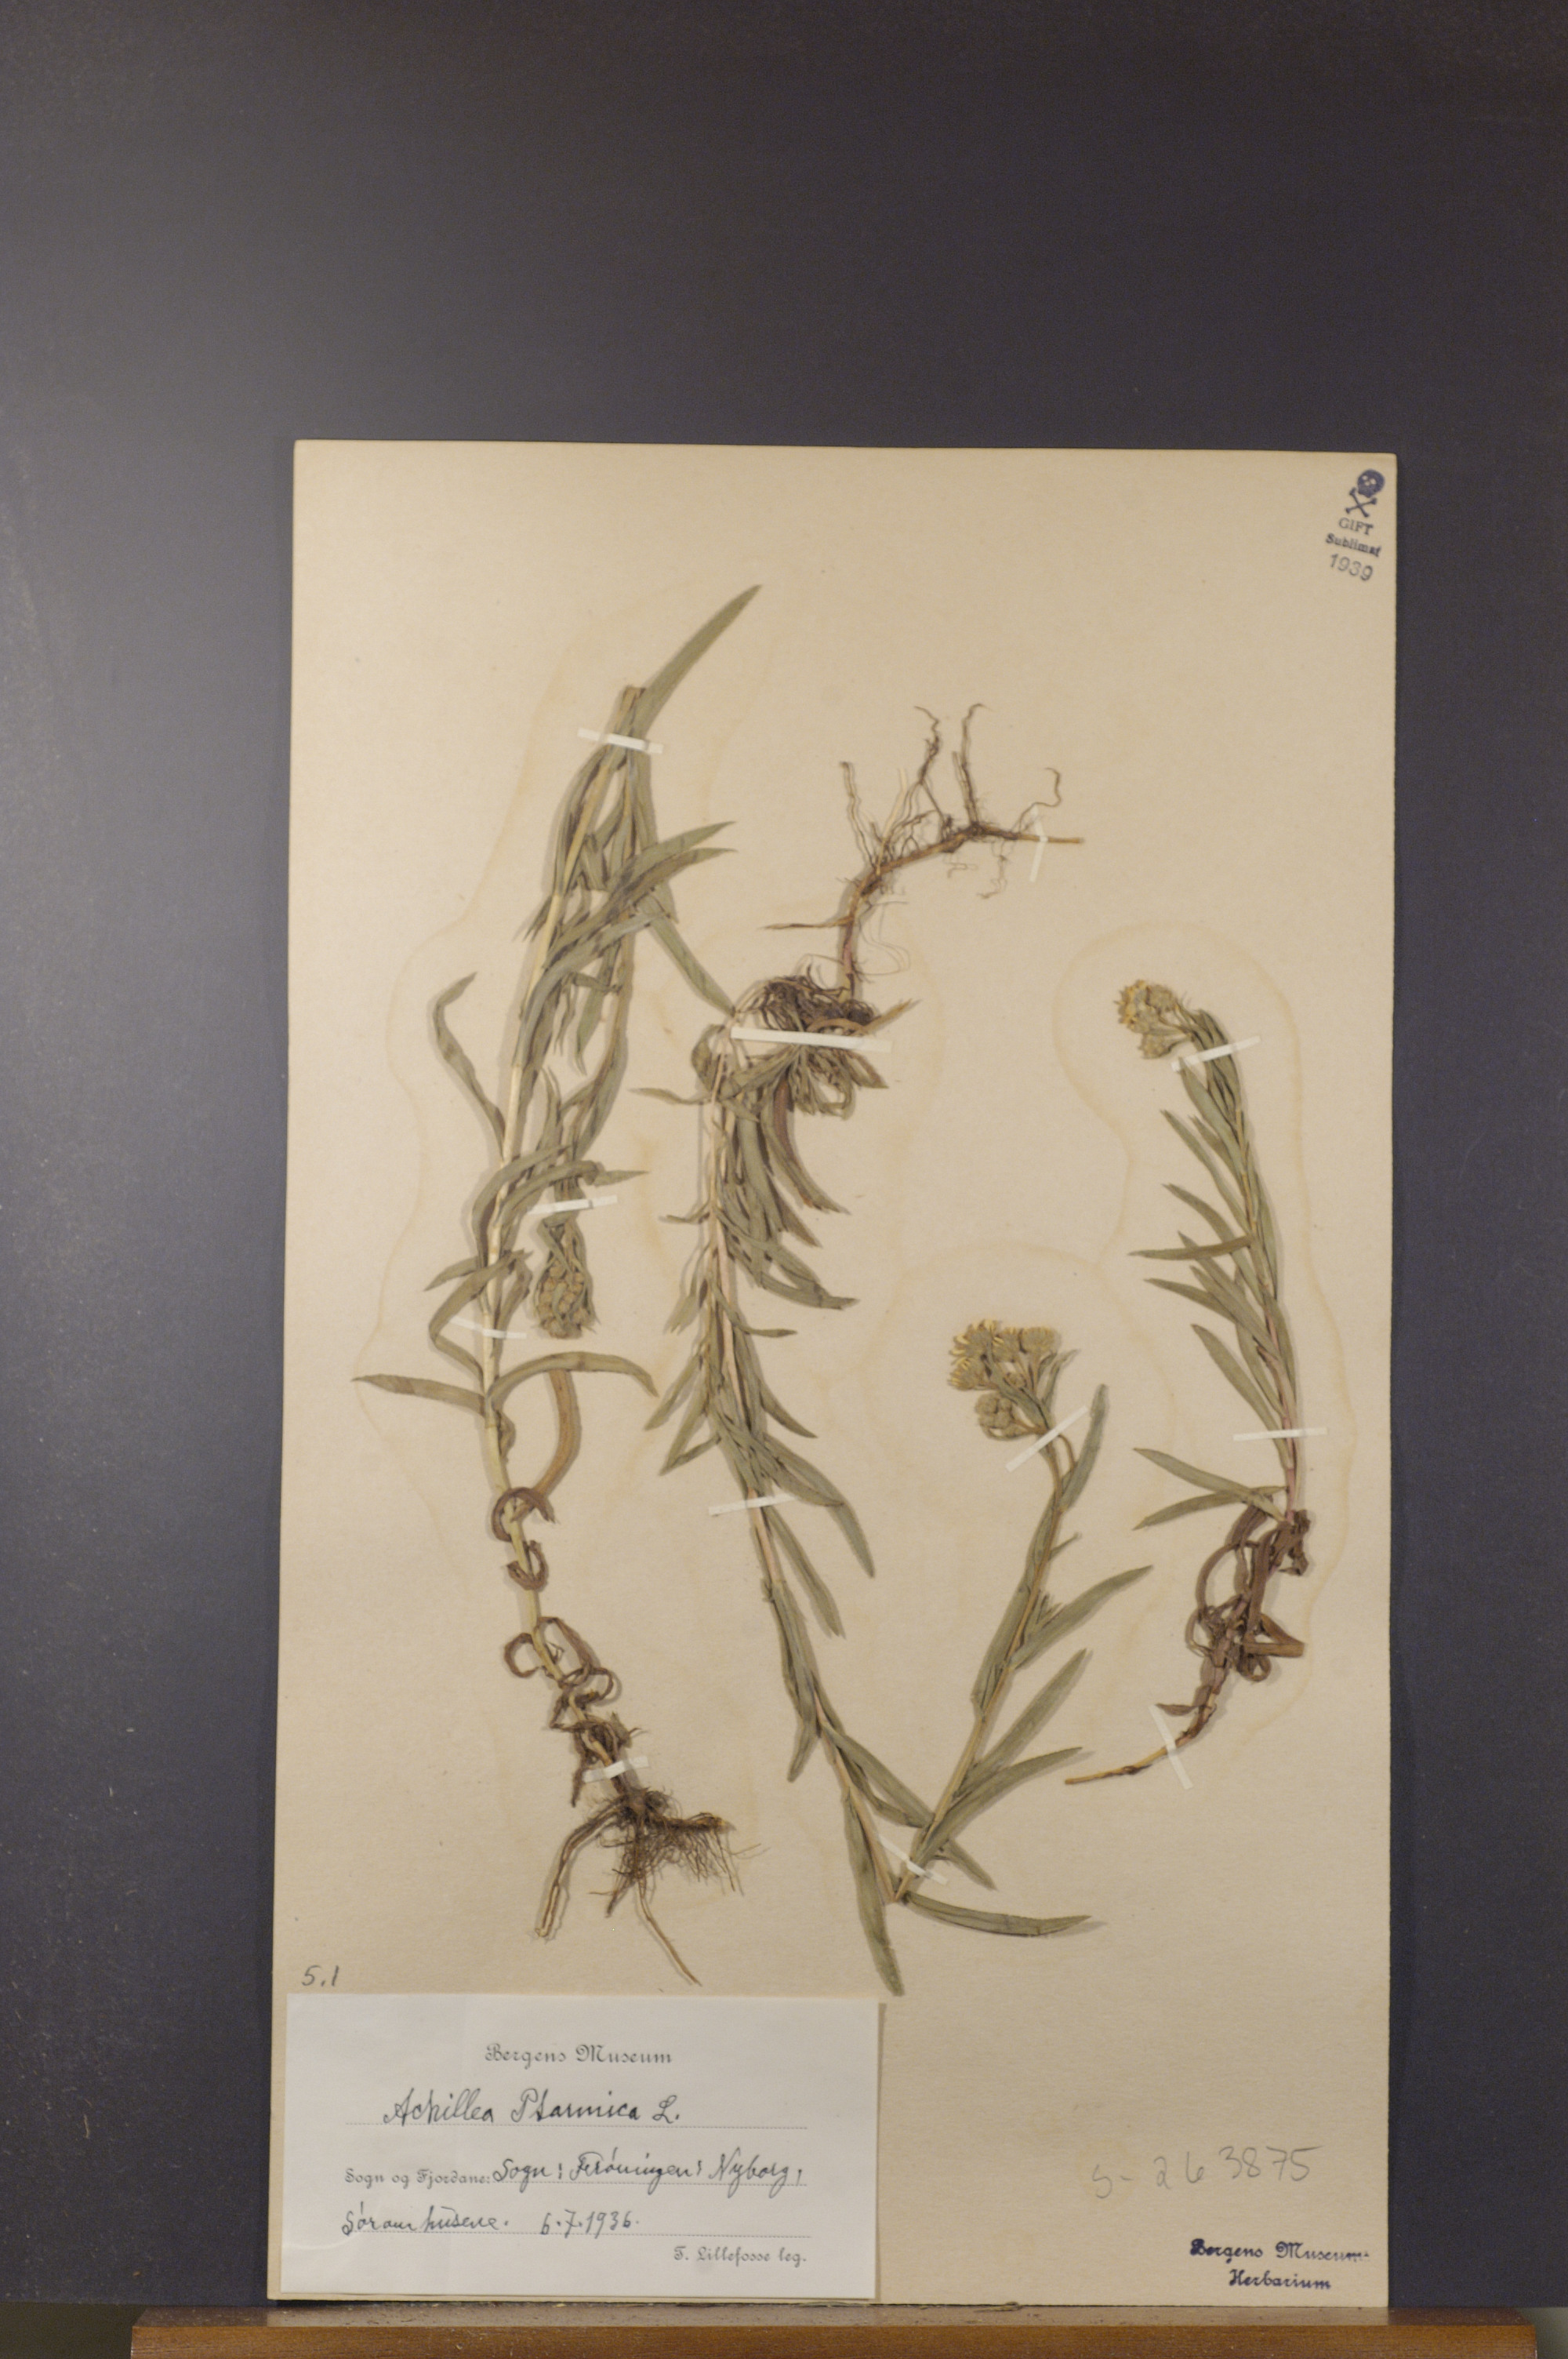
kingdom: Plantae
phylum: Tracheophyta
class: Magnoliopsida
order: Asterales
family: Asteraceae
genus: Achillea
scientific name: Achillea ptarmica
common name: Sneezeweed
